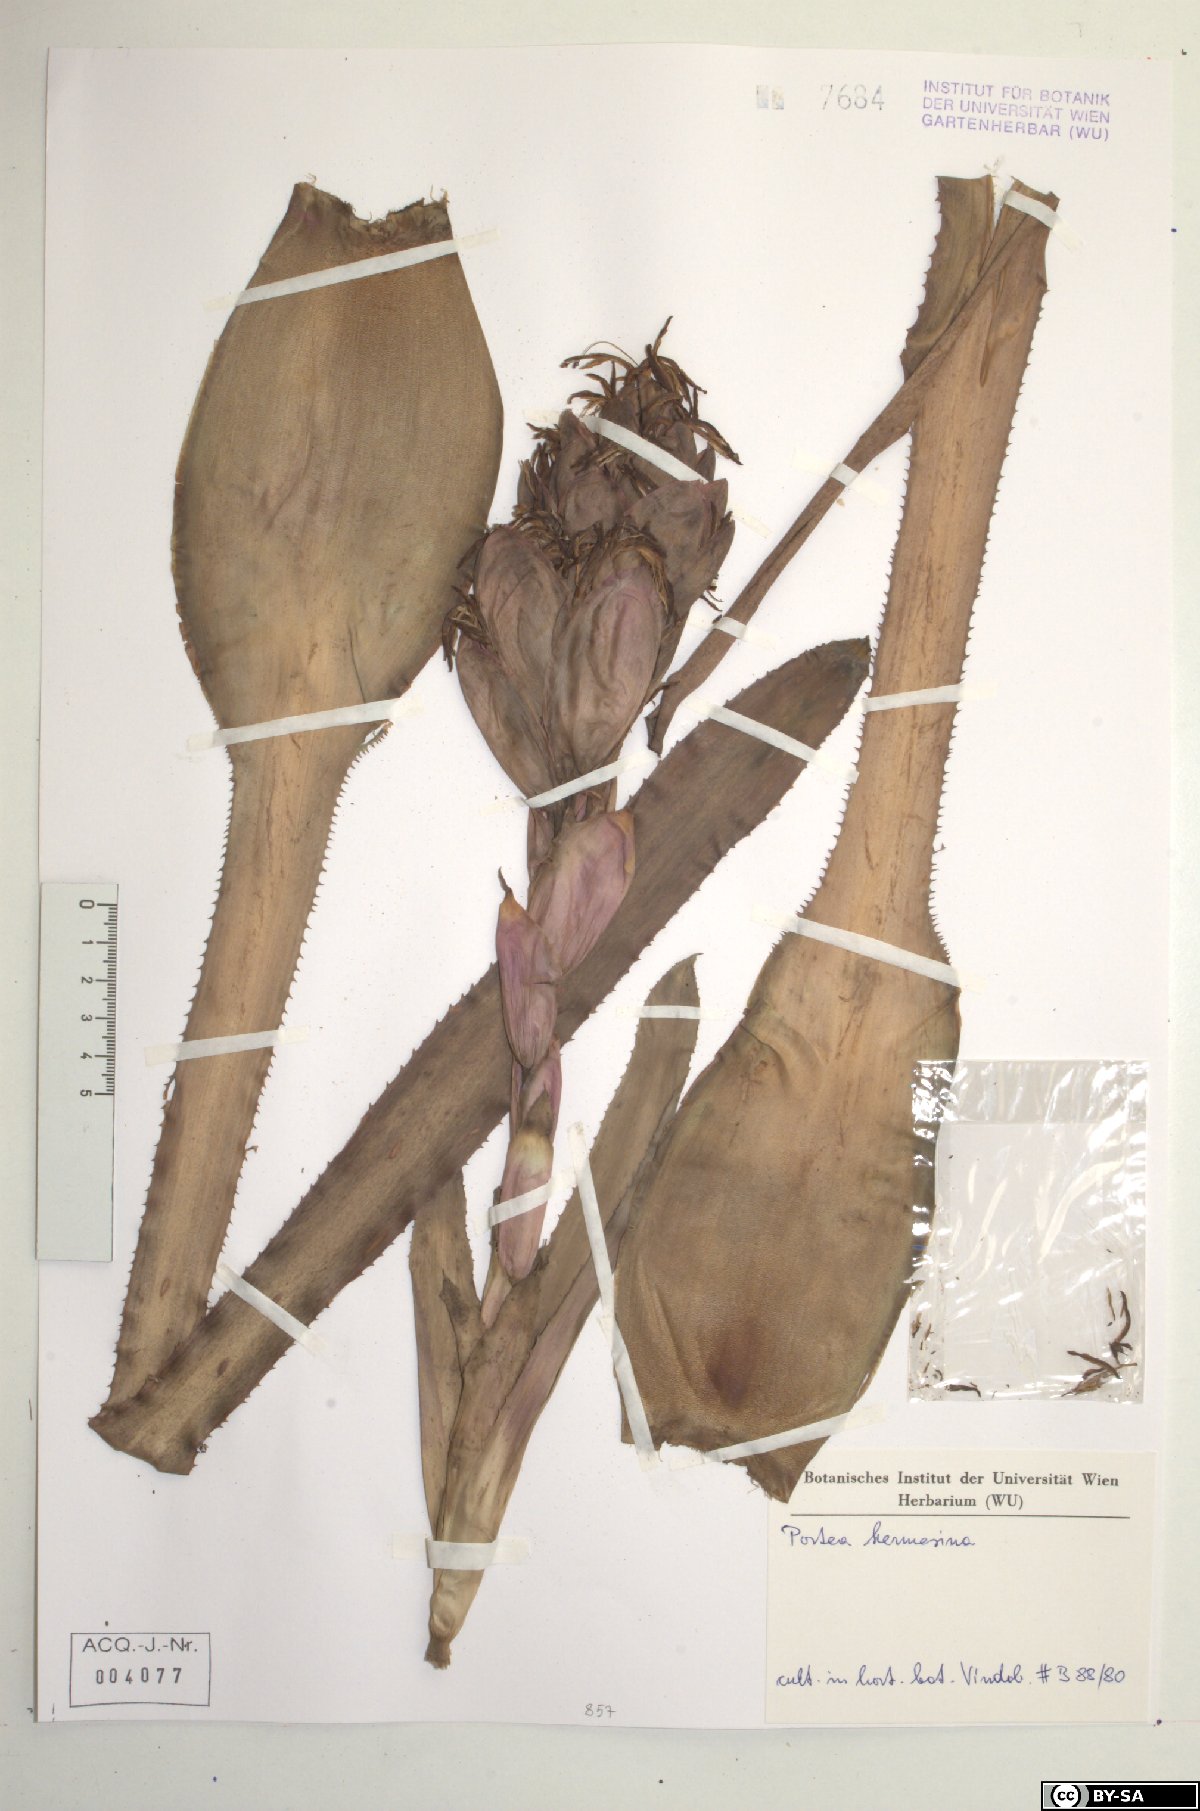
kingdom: Plantae
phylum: Tracheophyta
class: Liliopsida
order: Poales
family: Bromeliaceae
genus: Portea
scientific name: Portea kermesina
